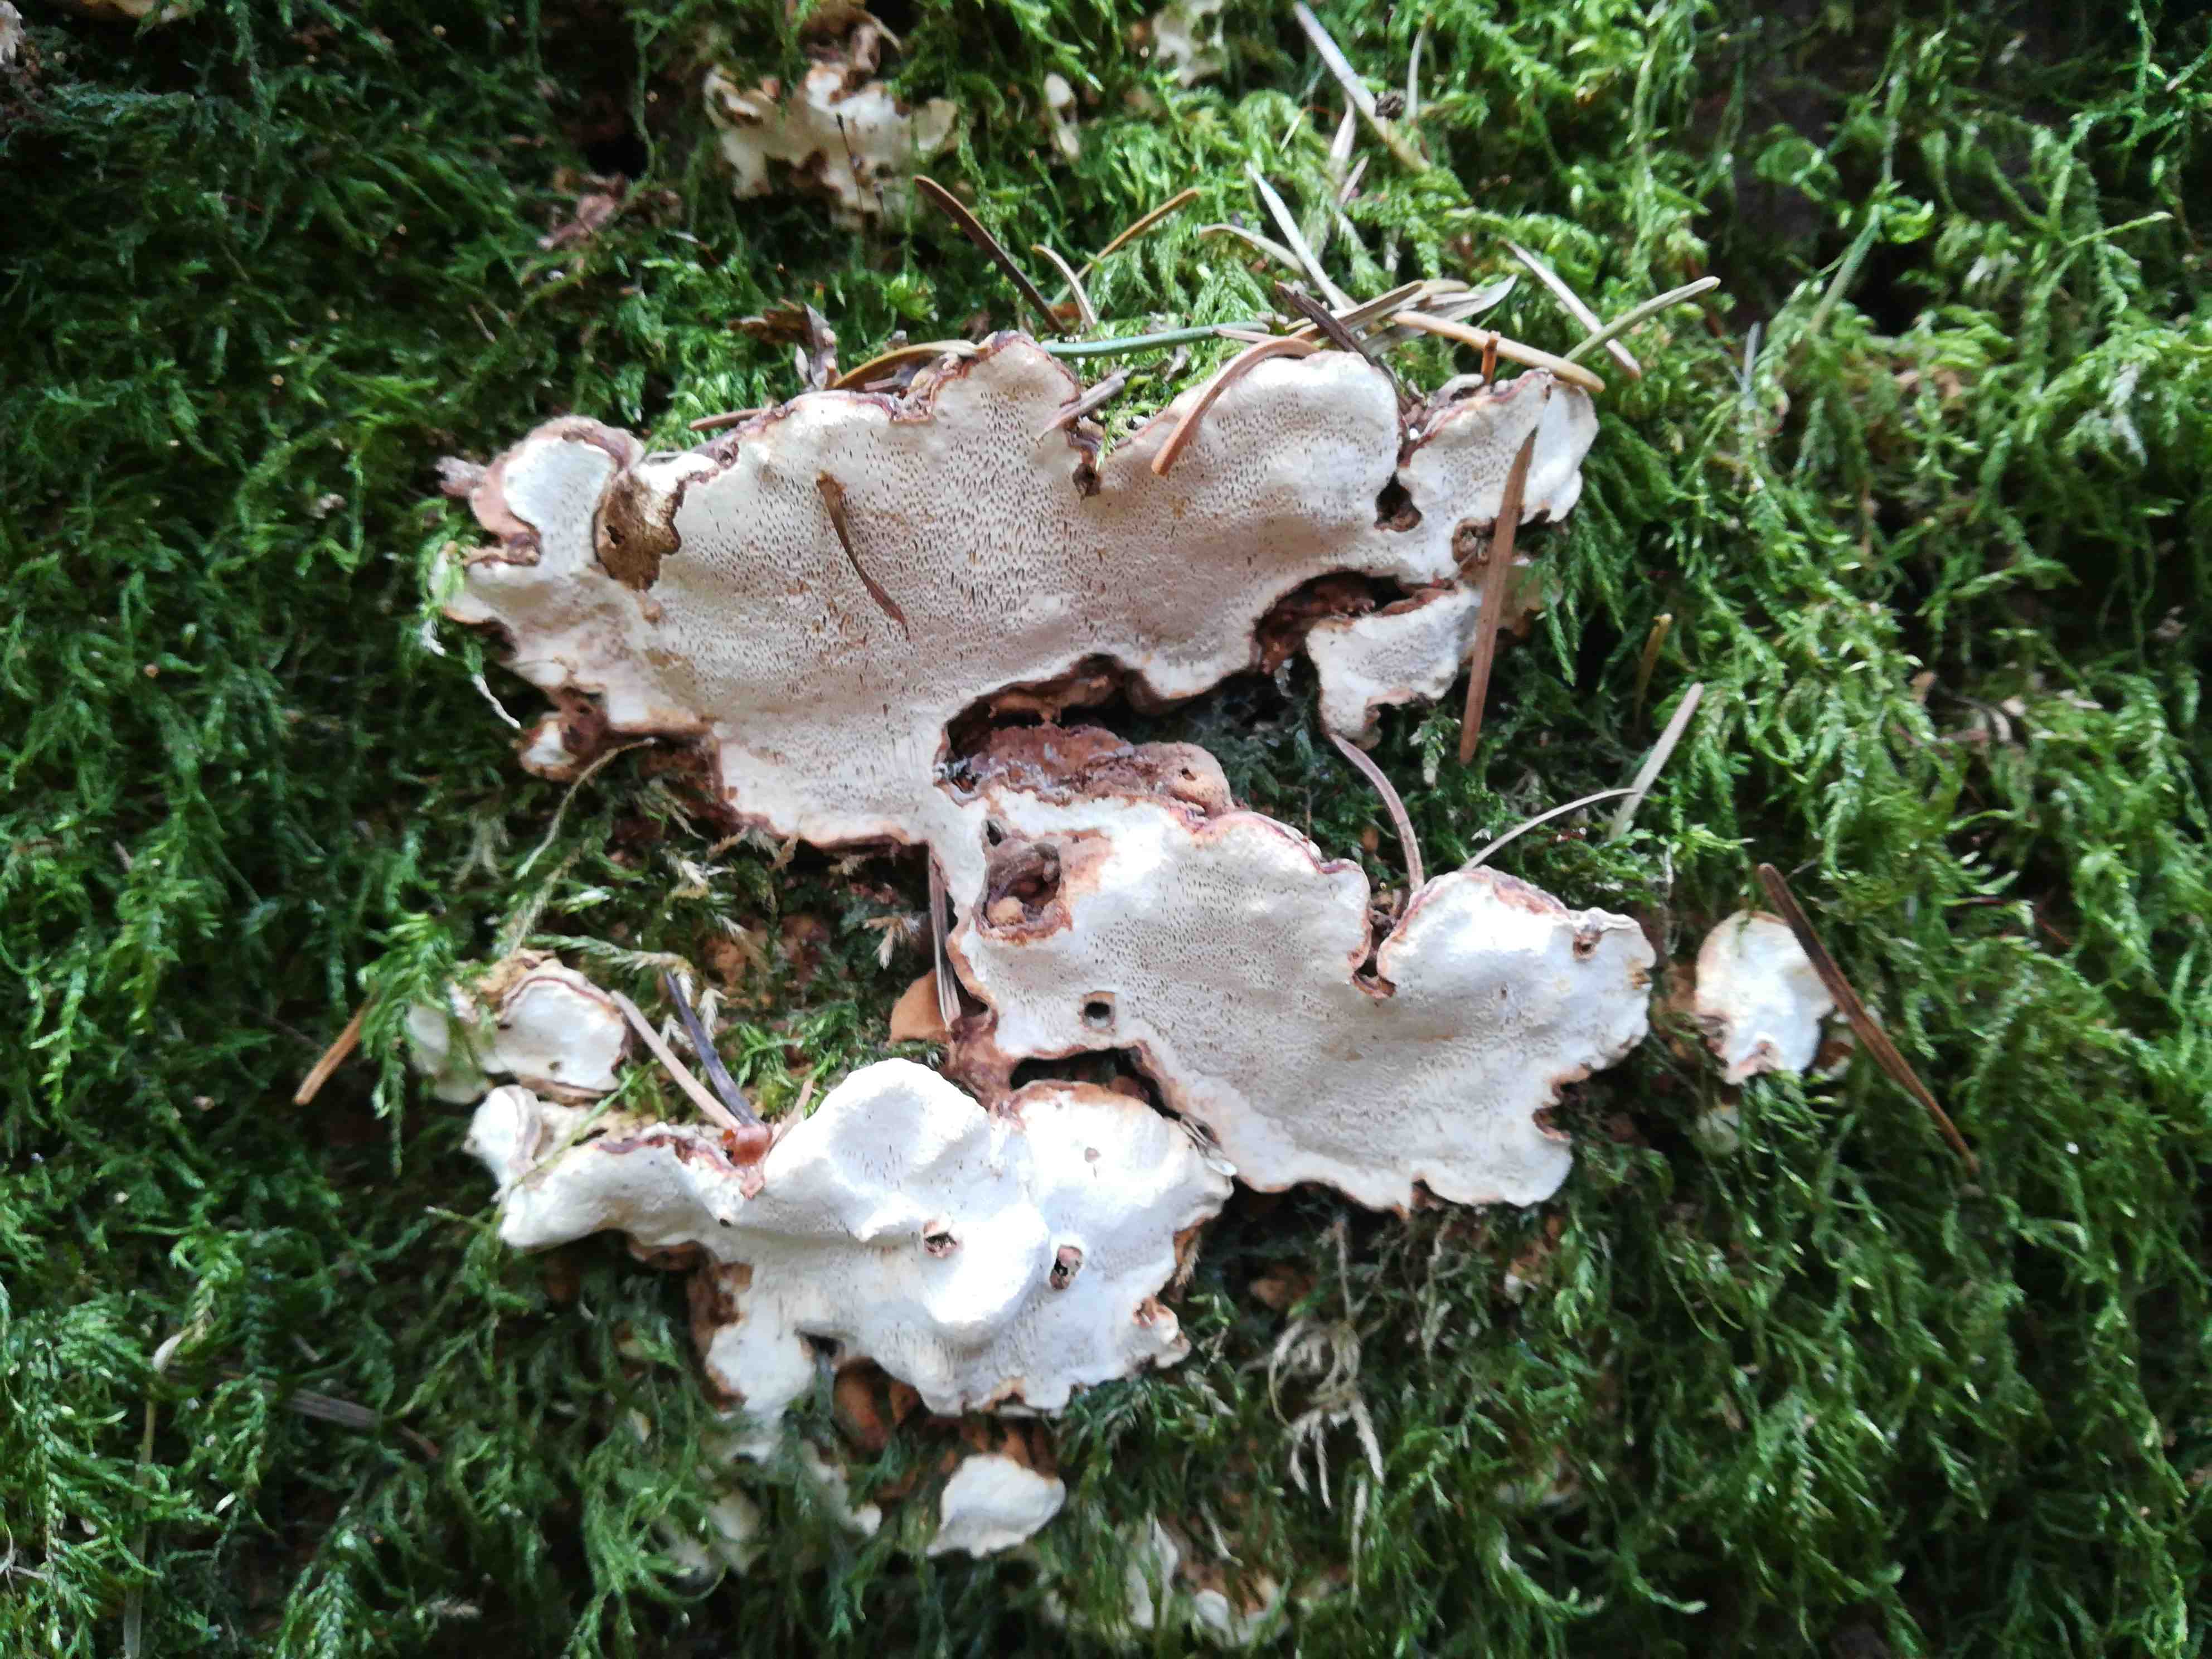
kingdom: Fungi
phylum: Basidiomycota
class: Agaricomycetes
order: Russulales
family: Bondarzewiaceae
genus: Heterobasidion
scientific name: Heterobasidion
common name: rodfordærver
